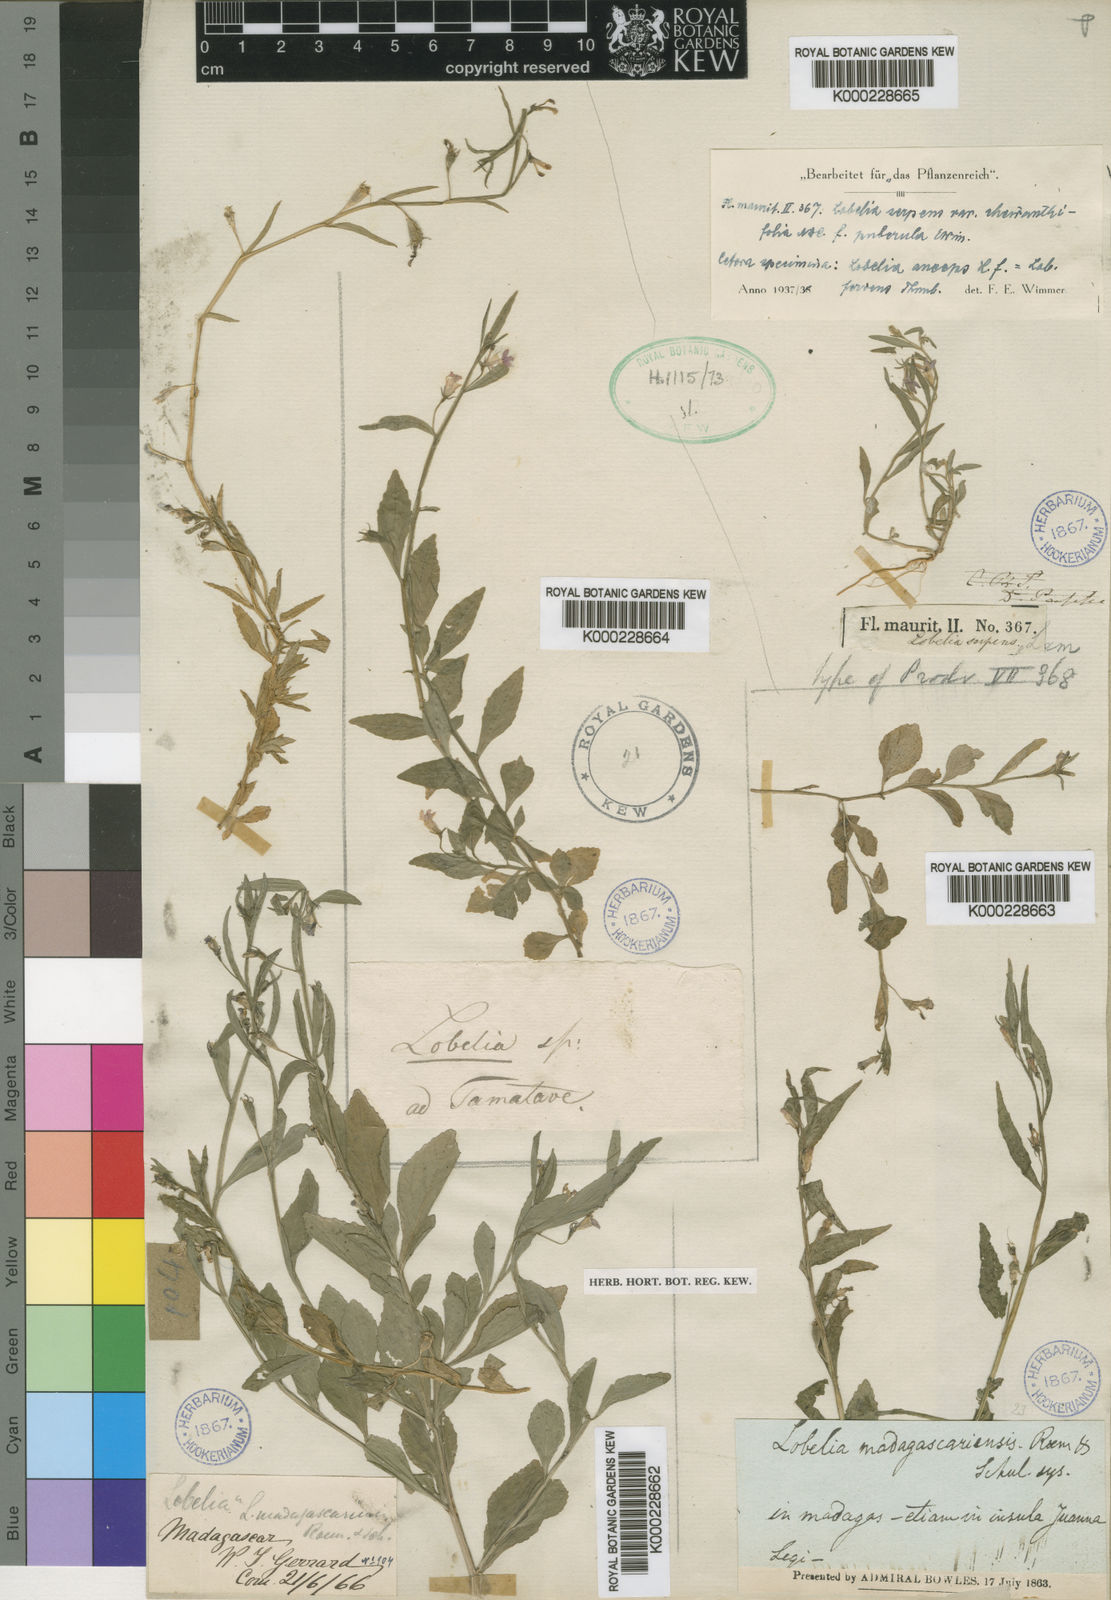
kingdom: Plantae
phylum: Tracheophyta
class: Magnoliopsida
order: Asterales
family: Campanulaceae
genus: Lobelia
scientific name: Lobelia serpens
